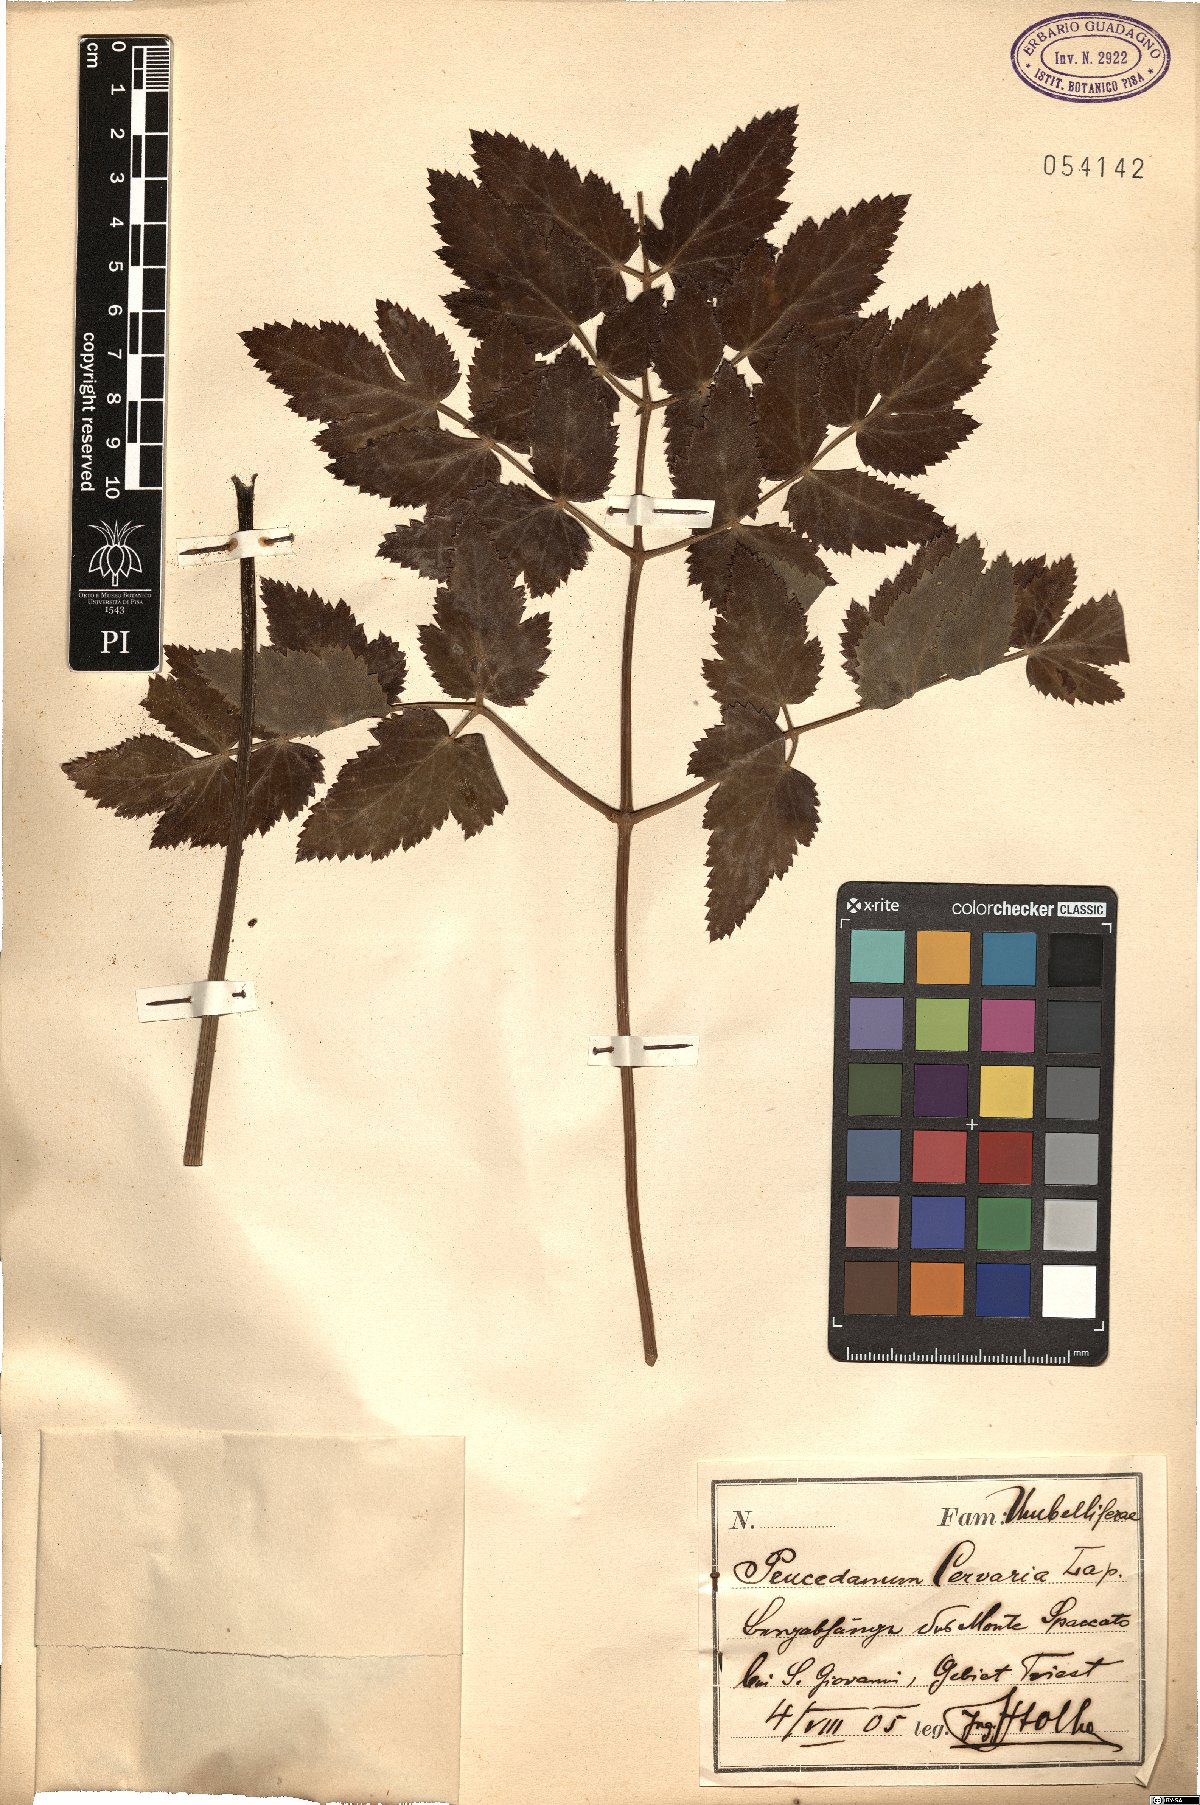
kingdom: Plantae
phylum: Tracheophyta
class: Magnoliopsida
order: Apiales
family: Apiaceae
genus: Cervaria
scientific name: Cervaria rivini
